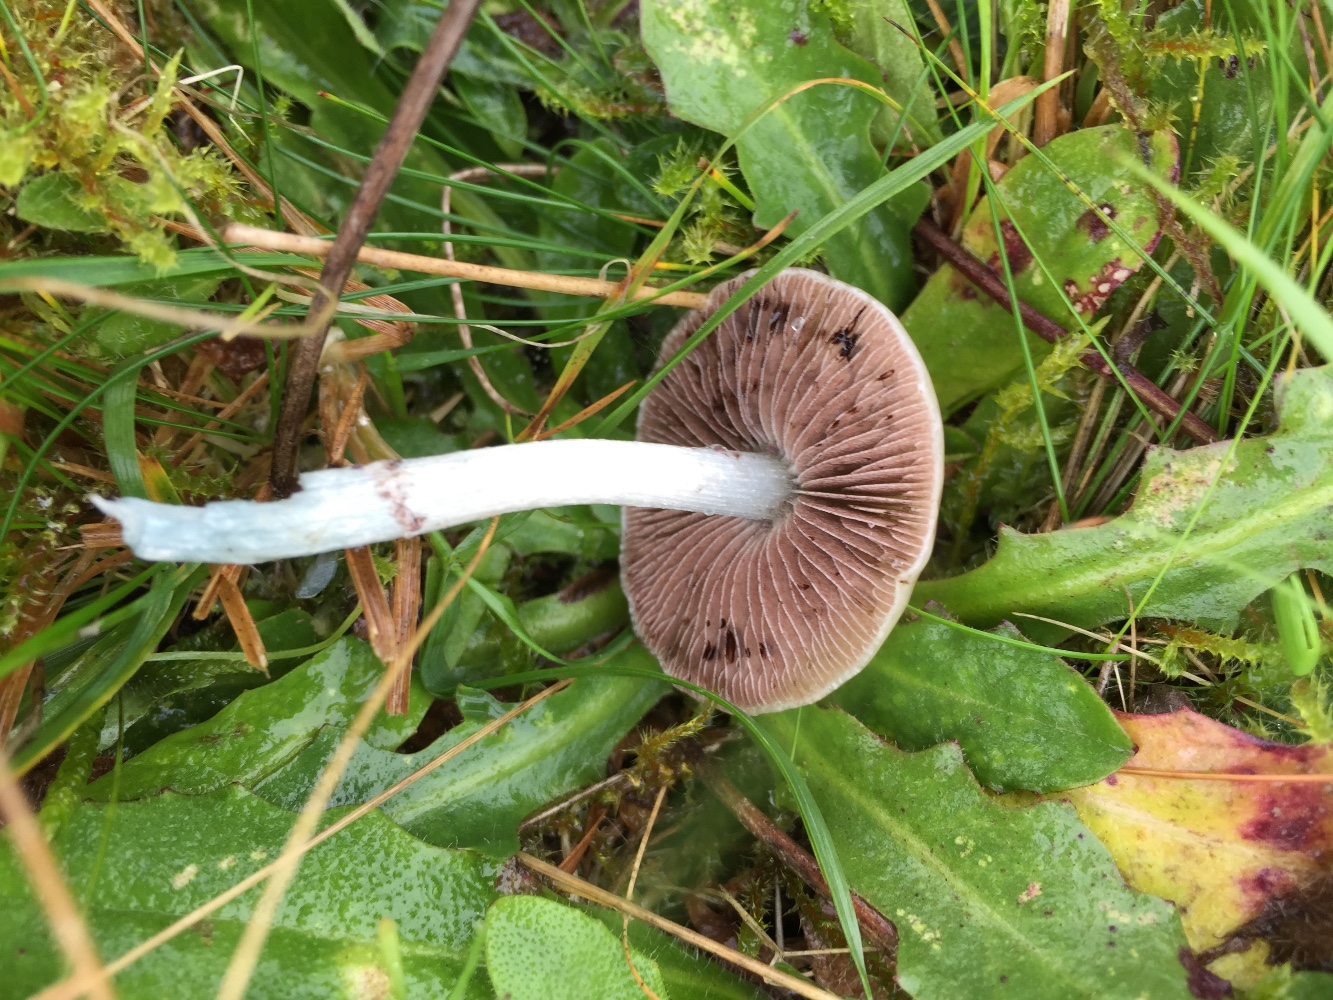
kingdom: Fungi
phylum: Basidiomycota
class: Agaricomycetes
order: Agaricales
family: Strophariaceae
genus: Stropharia
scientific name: Stropharia pseudocyanea
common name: blegblå bredblad
